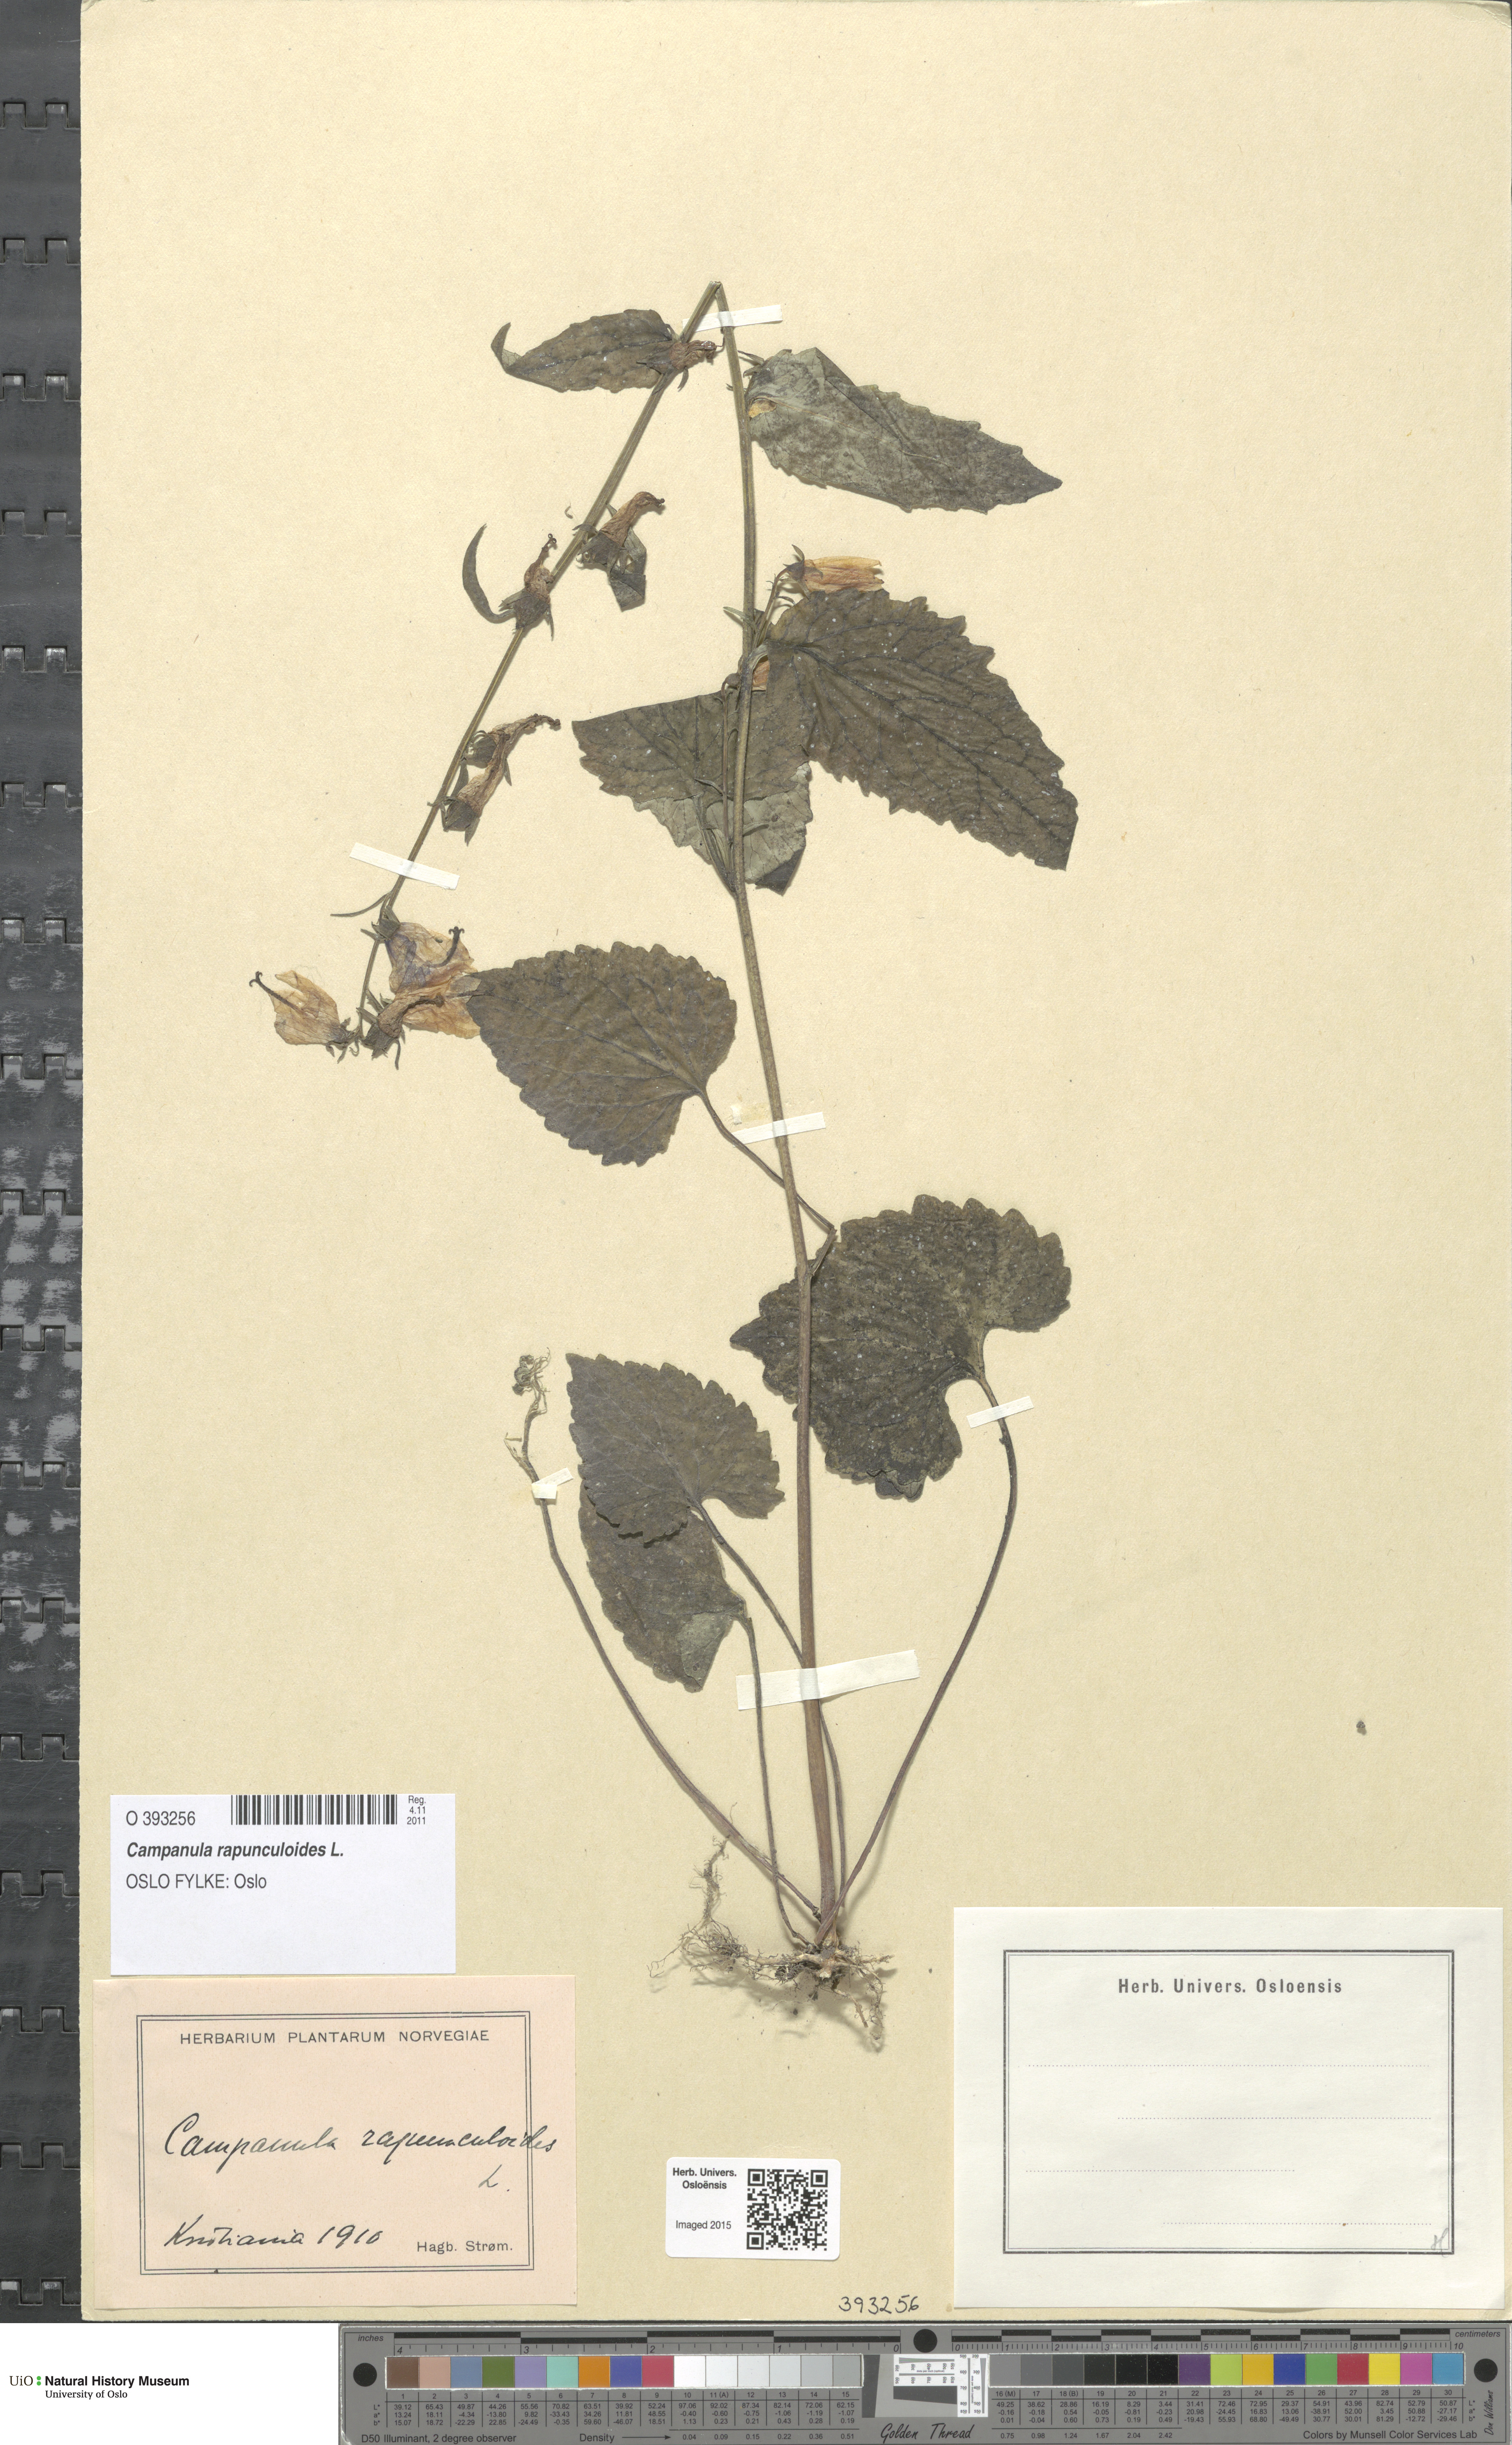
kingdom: Plantae
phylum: Tracheophyta
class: Magnoliopsida
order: Asterales
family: Campanulaceae
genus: Campanula
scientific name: Campanula rapunculoides
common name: Creeping bellflower
